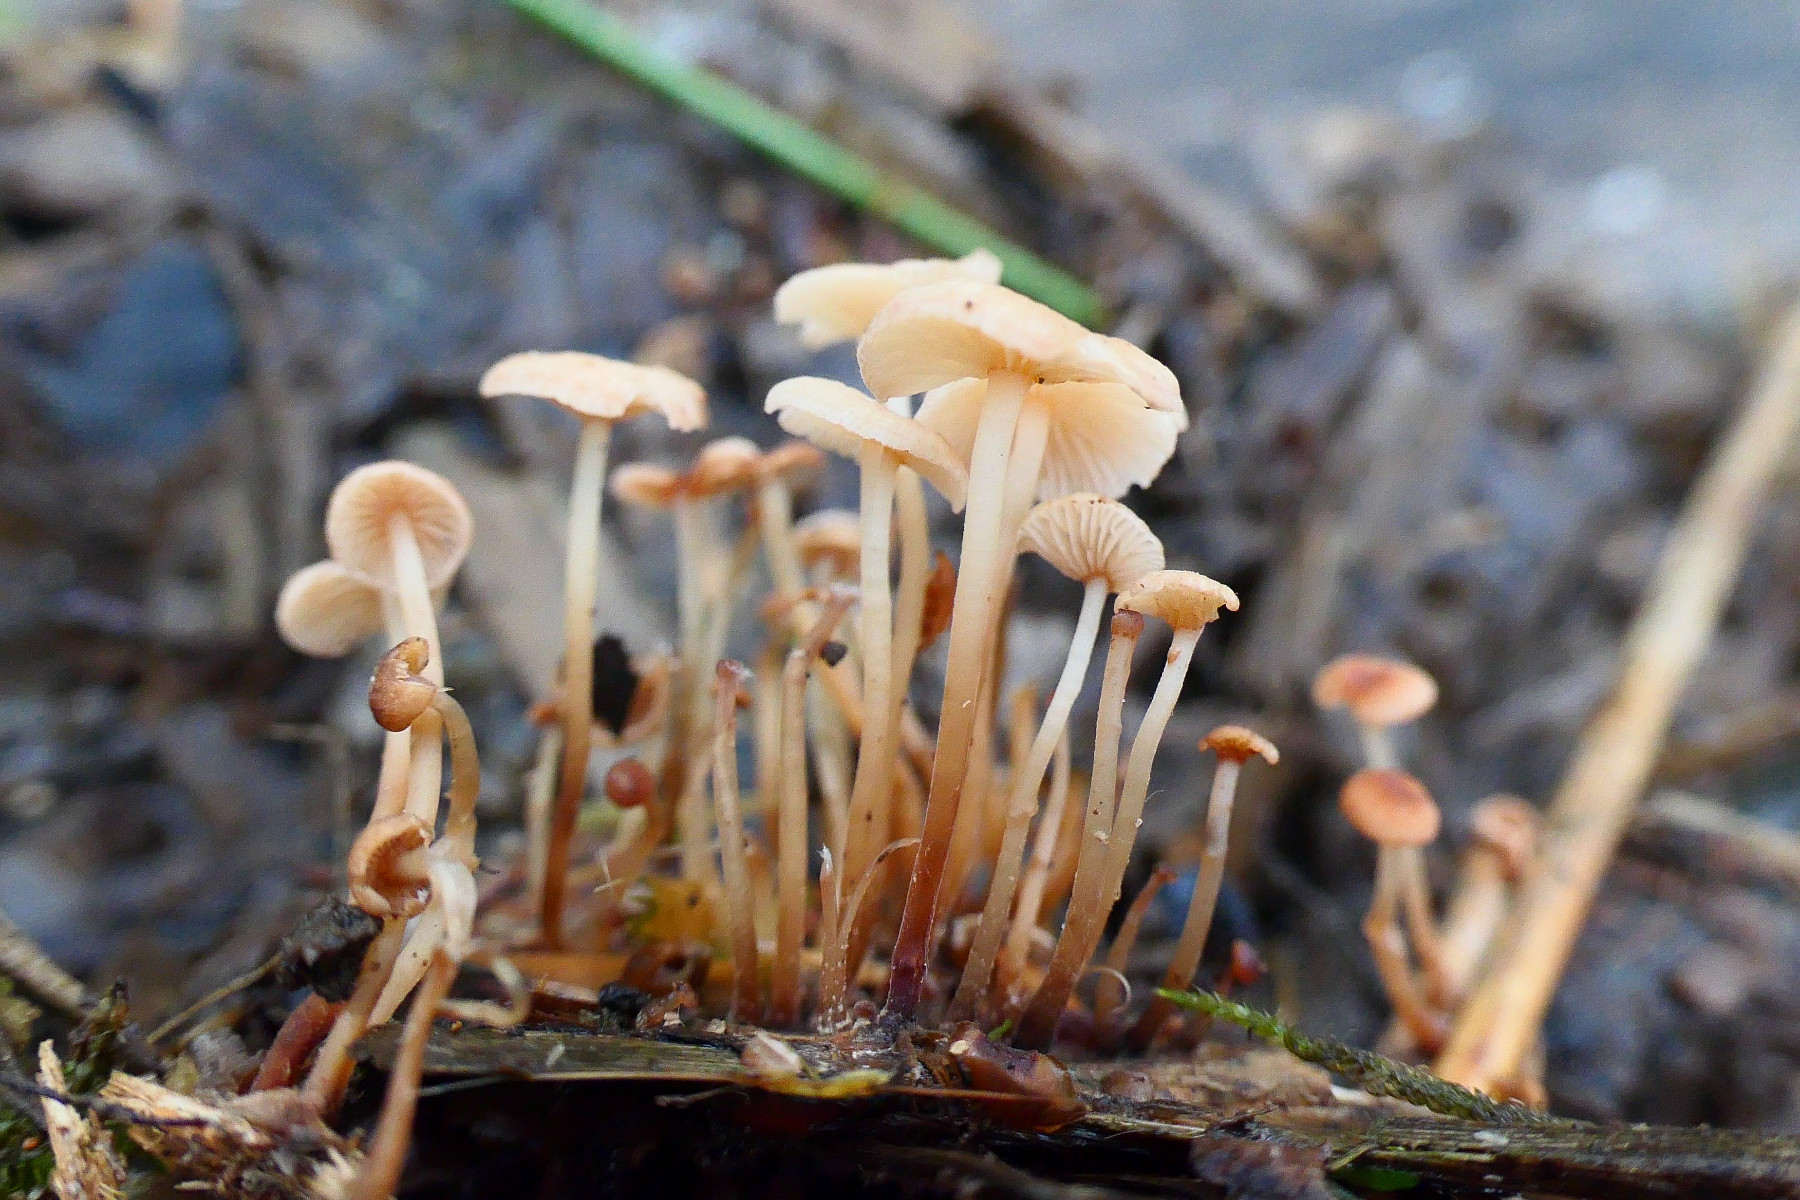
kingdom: Fungi
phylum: Basidiomycota
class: Agaricomycetes
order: Agaricales
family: Omphalotaceae
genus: Collybiopsis
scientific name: Collybiopsis vaillantii
